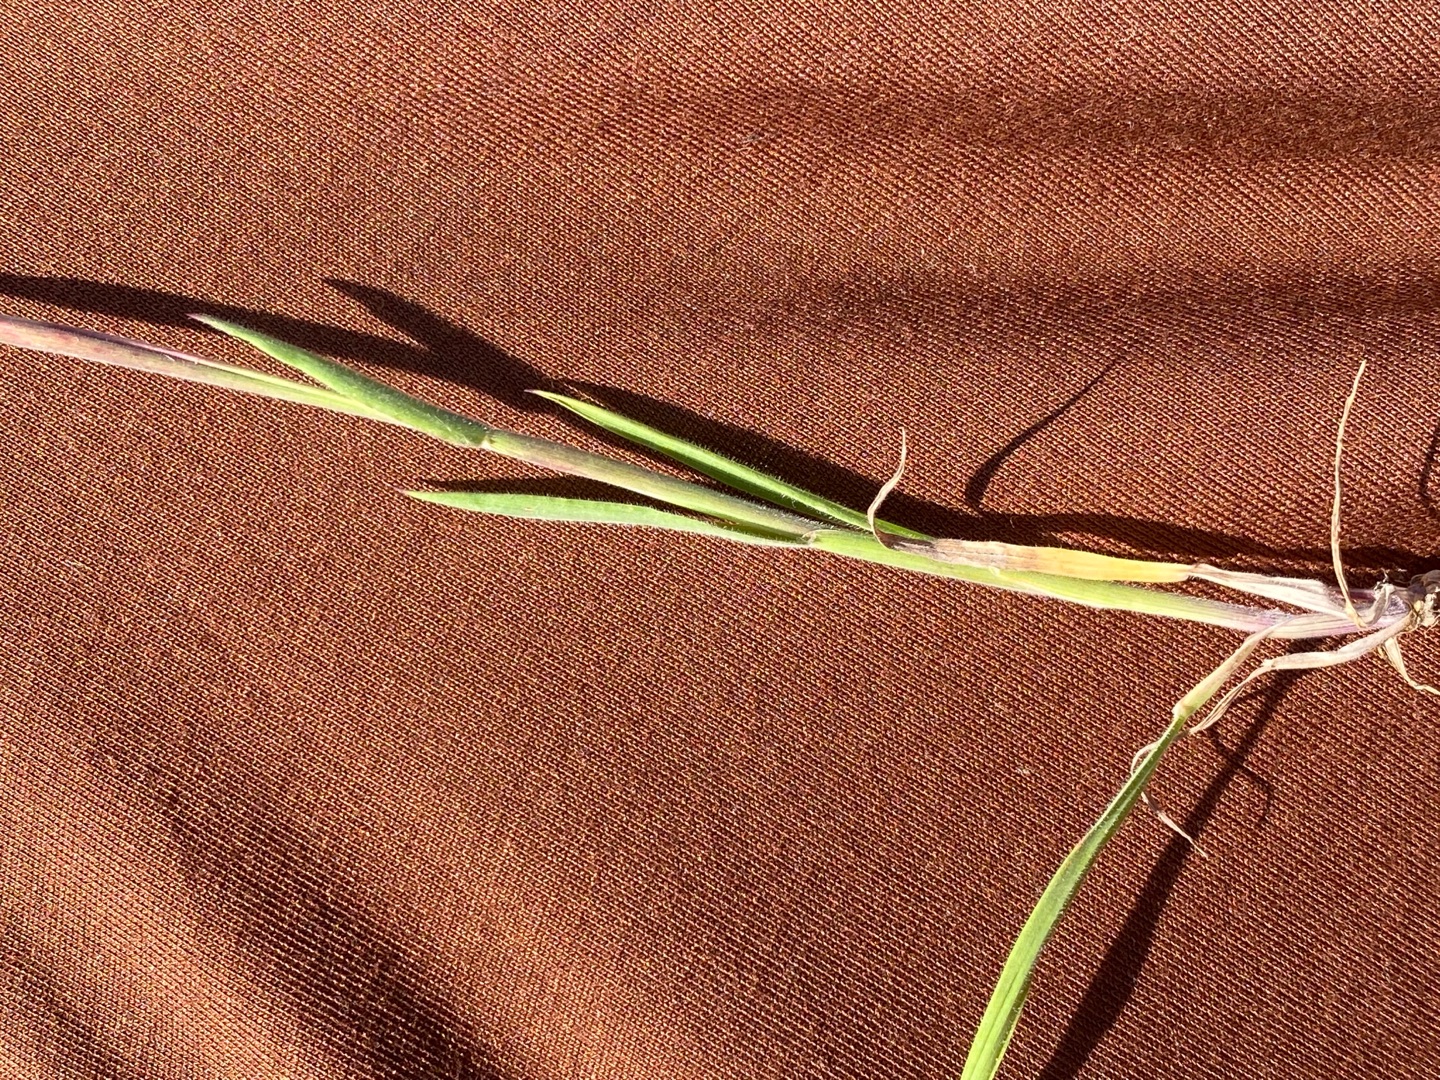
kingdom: Plantae
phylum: Tracheophyta
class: Liliopsida
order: Poales
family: Poaceae
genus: Holcus
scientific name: Holcus lanatus
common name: Fløjlsgræs
